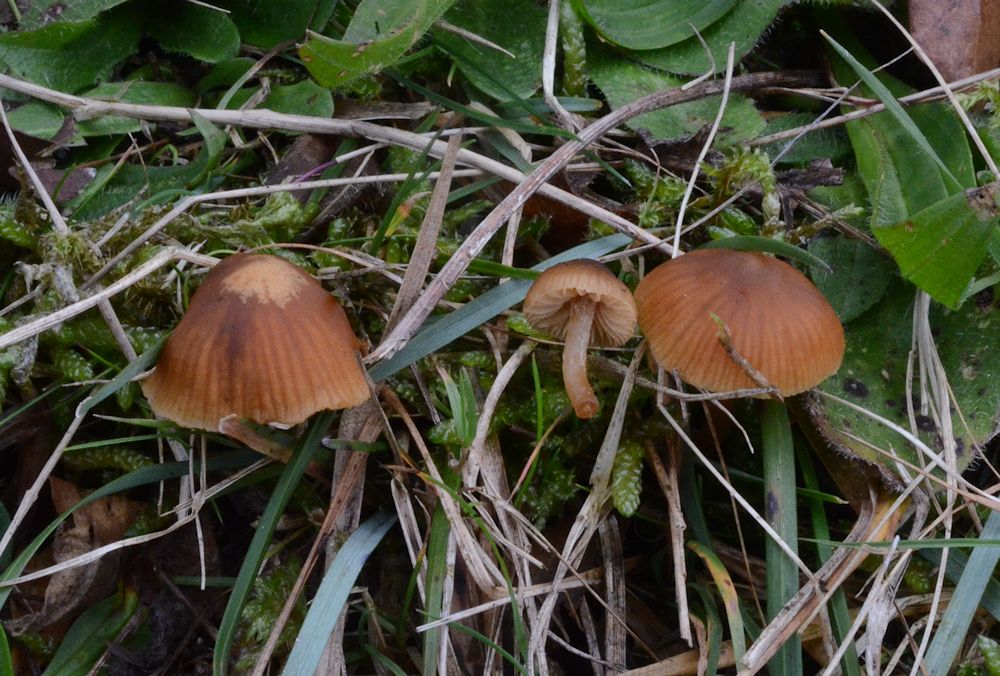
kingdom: Fungi
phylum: Basidiomycota
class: Agaricomycetes
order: Agaricales
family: Hymenogastraceae
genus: Galerina
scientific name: Galerina cephalotricha
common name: hede-hjelmhat
